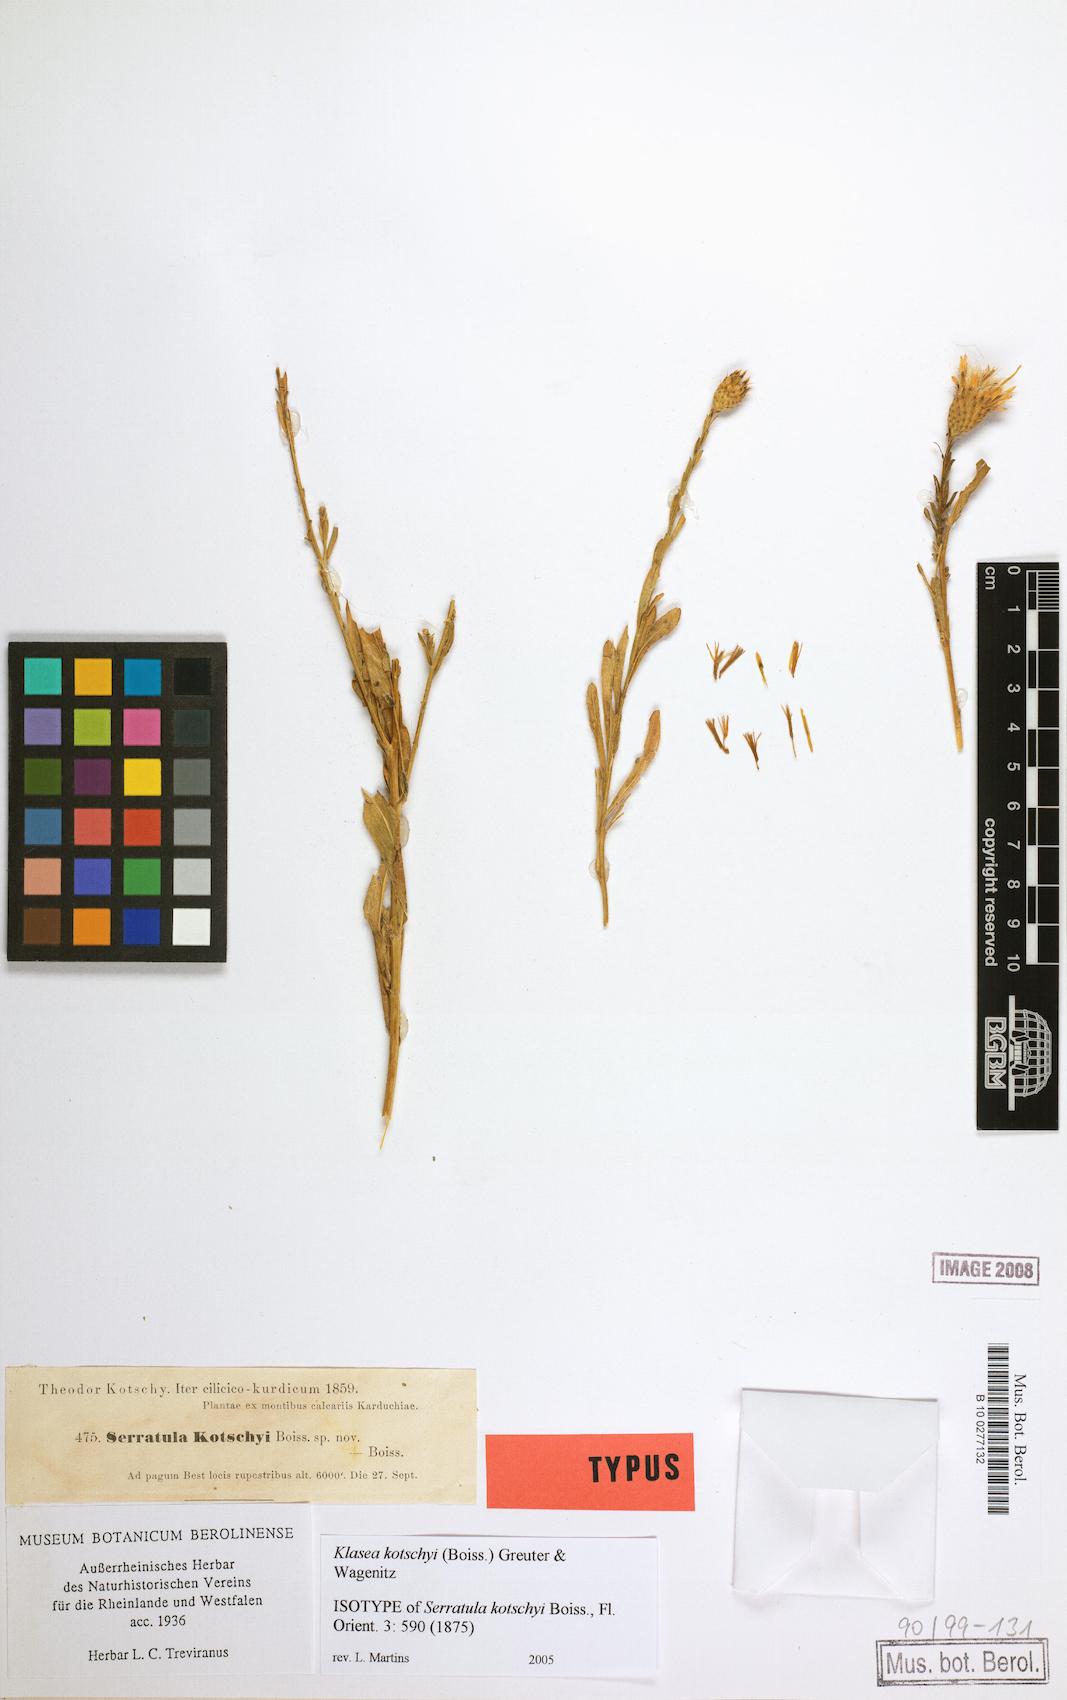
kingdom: Plantae
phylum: Tracheophyta
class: Magnoliopsida
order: Asterales
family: Asteraceae
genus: Klasea
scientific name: Klasea kotschyi
